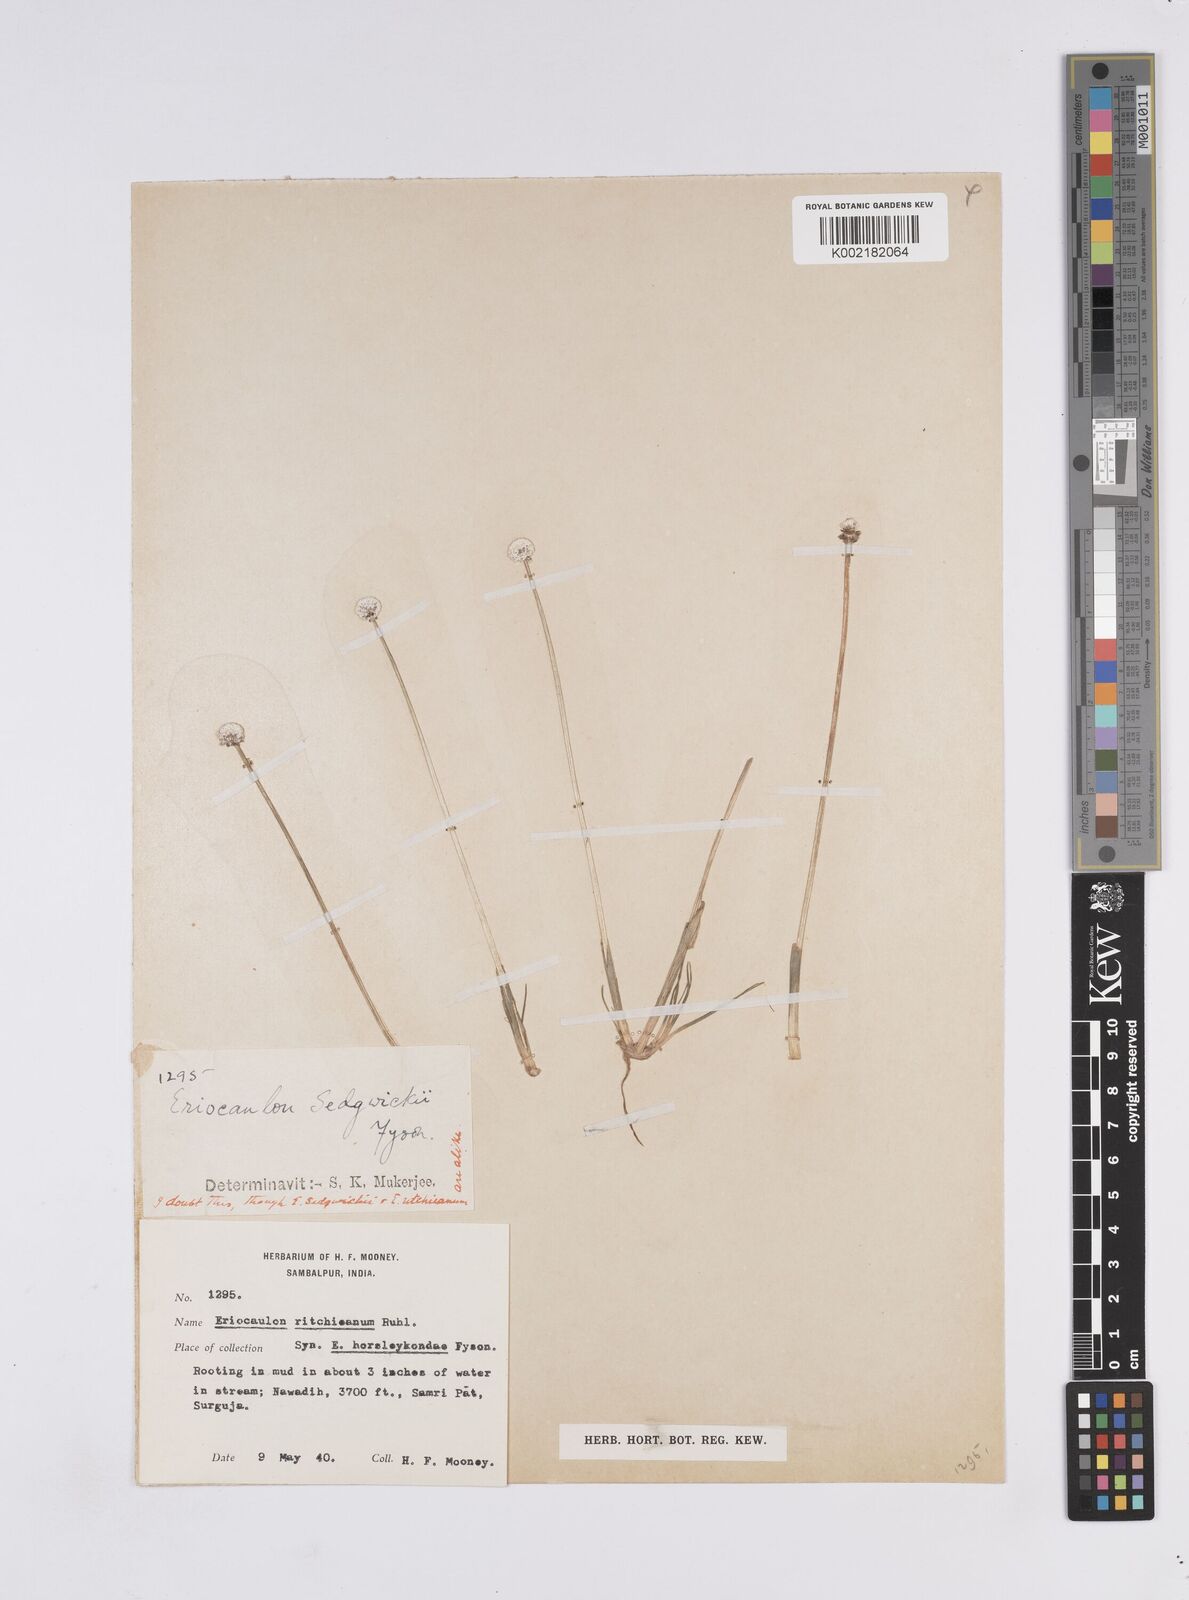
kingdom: Plantae
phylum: Tracheophyta
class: Liliopsida
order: Poales
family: Eriocaulaceae
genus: Eriocaulon
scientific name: Eriocaulon ritchieanum
